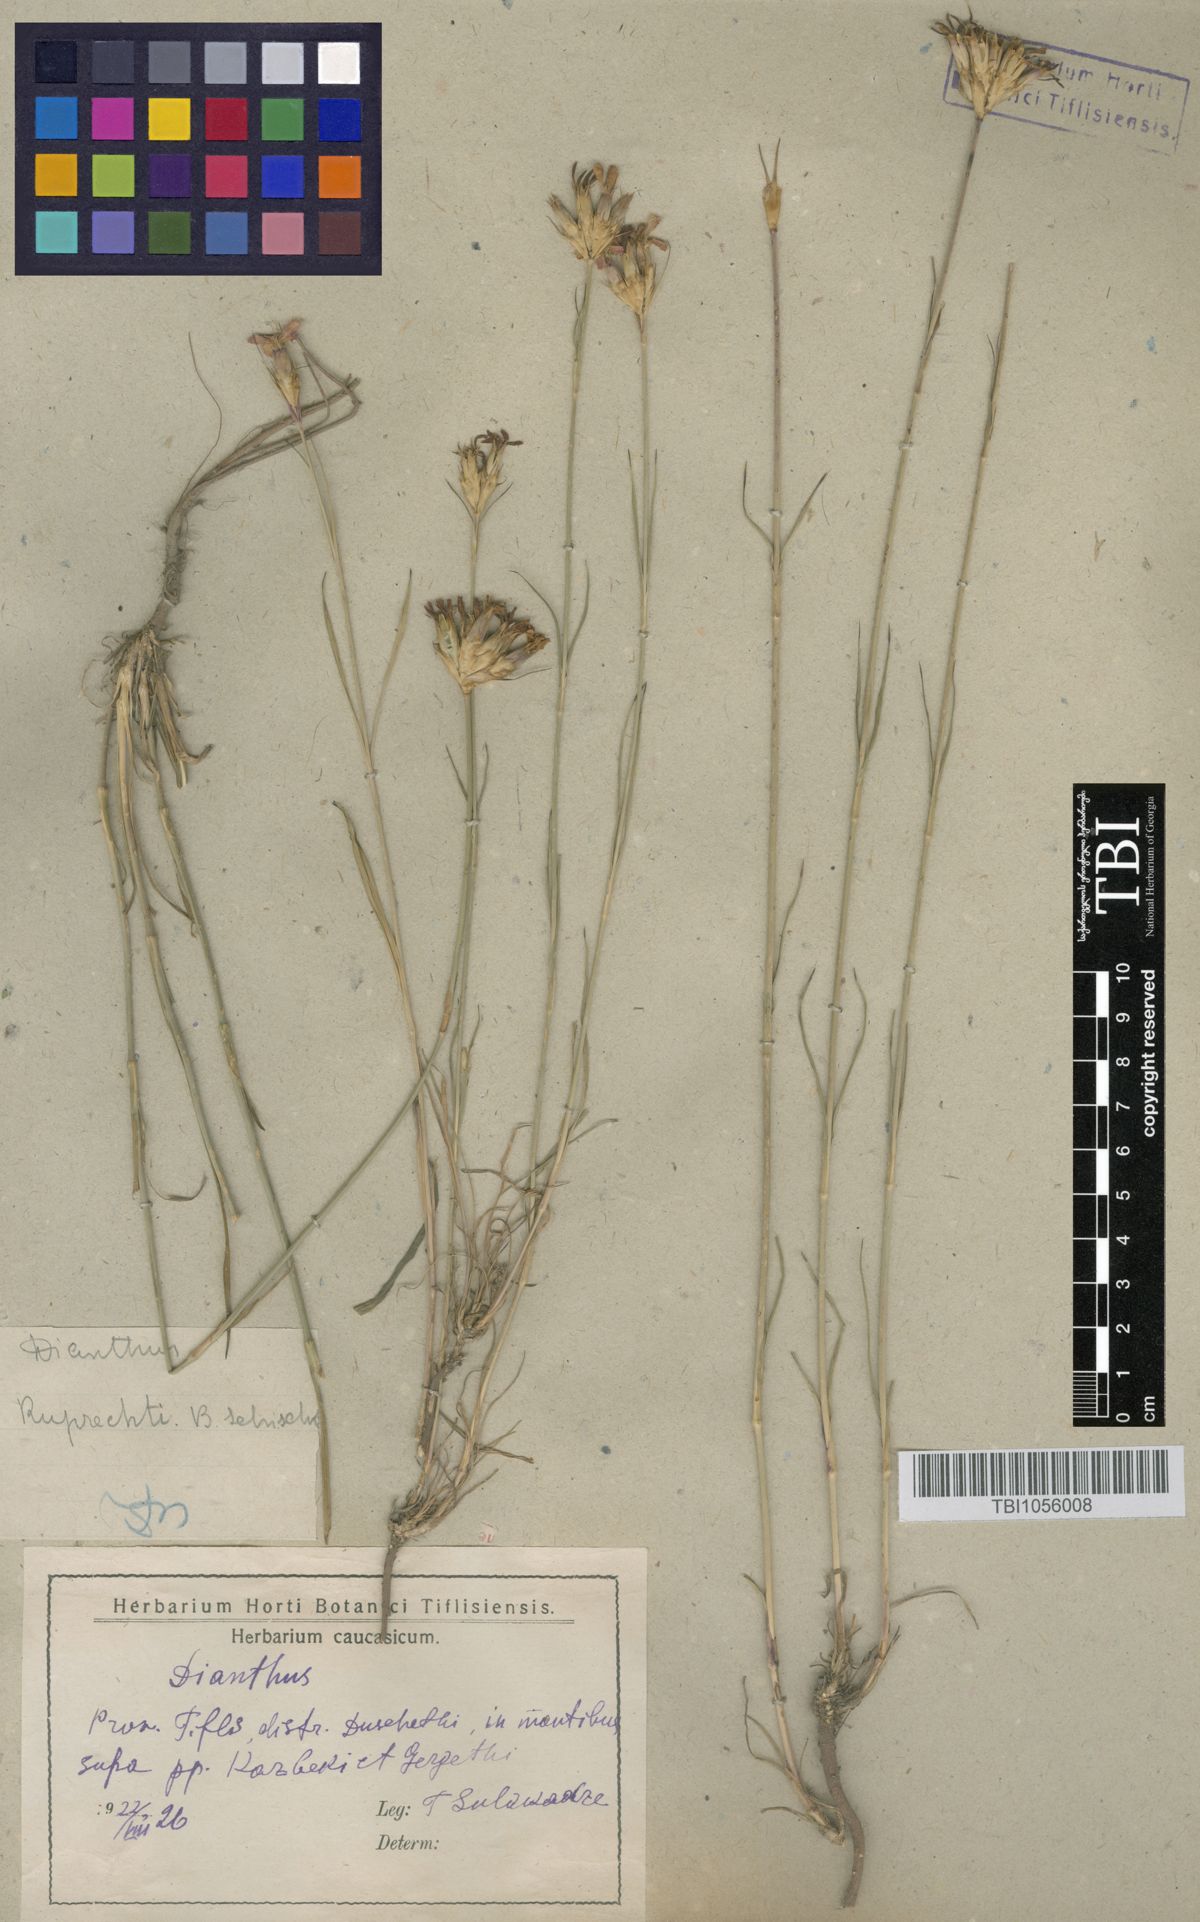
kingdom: Plantae
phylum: Tracheophyta
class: Magnoliopsida
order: Caryophyllales
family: Caryophyllaceae
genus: Dianthus
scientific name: Dianthus ruprechtii
